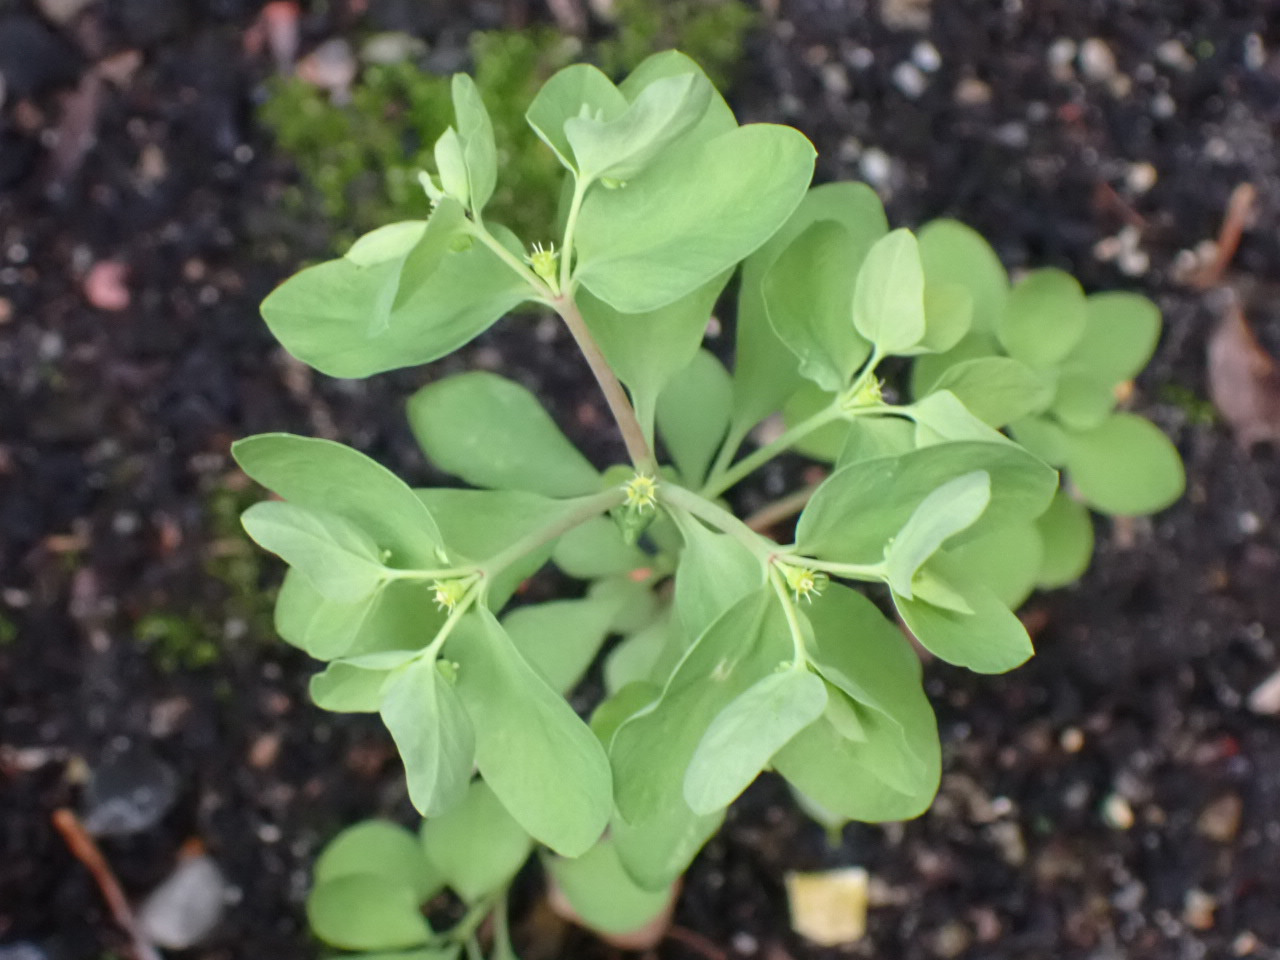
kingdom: Plantae
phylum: Tracheophyta
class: Magnoliopsida
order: Malpighiales
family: Euphorbiaceae
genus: Euphorbia
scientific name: Euphorbia peplus
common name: Gaffel-vortemælk
